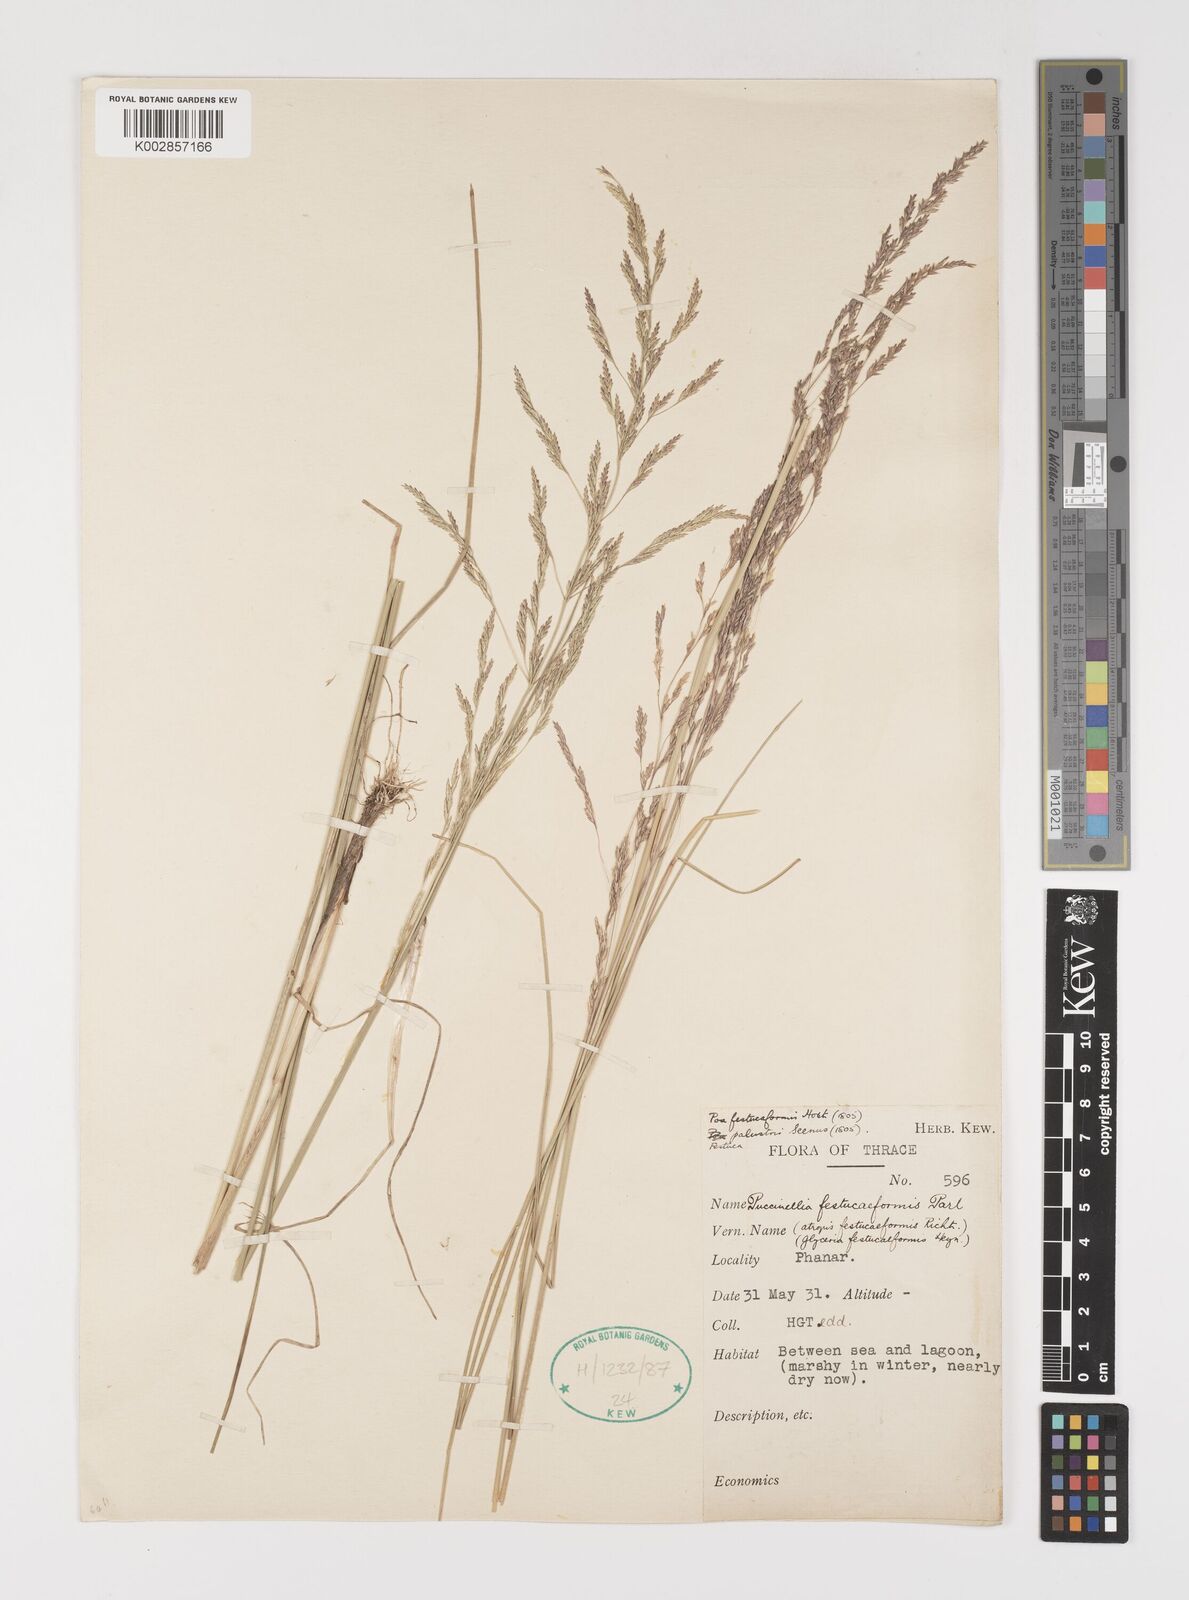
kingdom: Plantae
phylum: Tracheophyta
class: Liliopsida
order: Poales
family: Poaceae
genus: Puccinellia
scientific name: Puccinellia festuciformis
